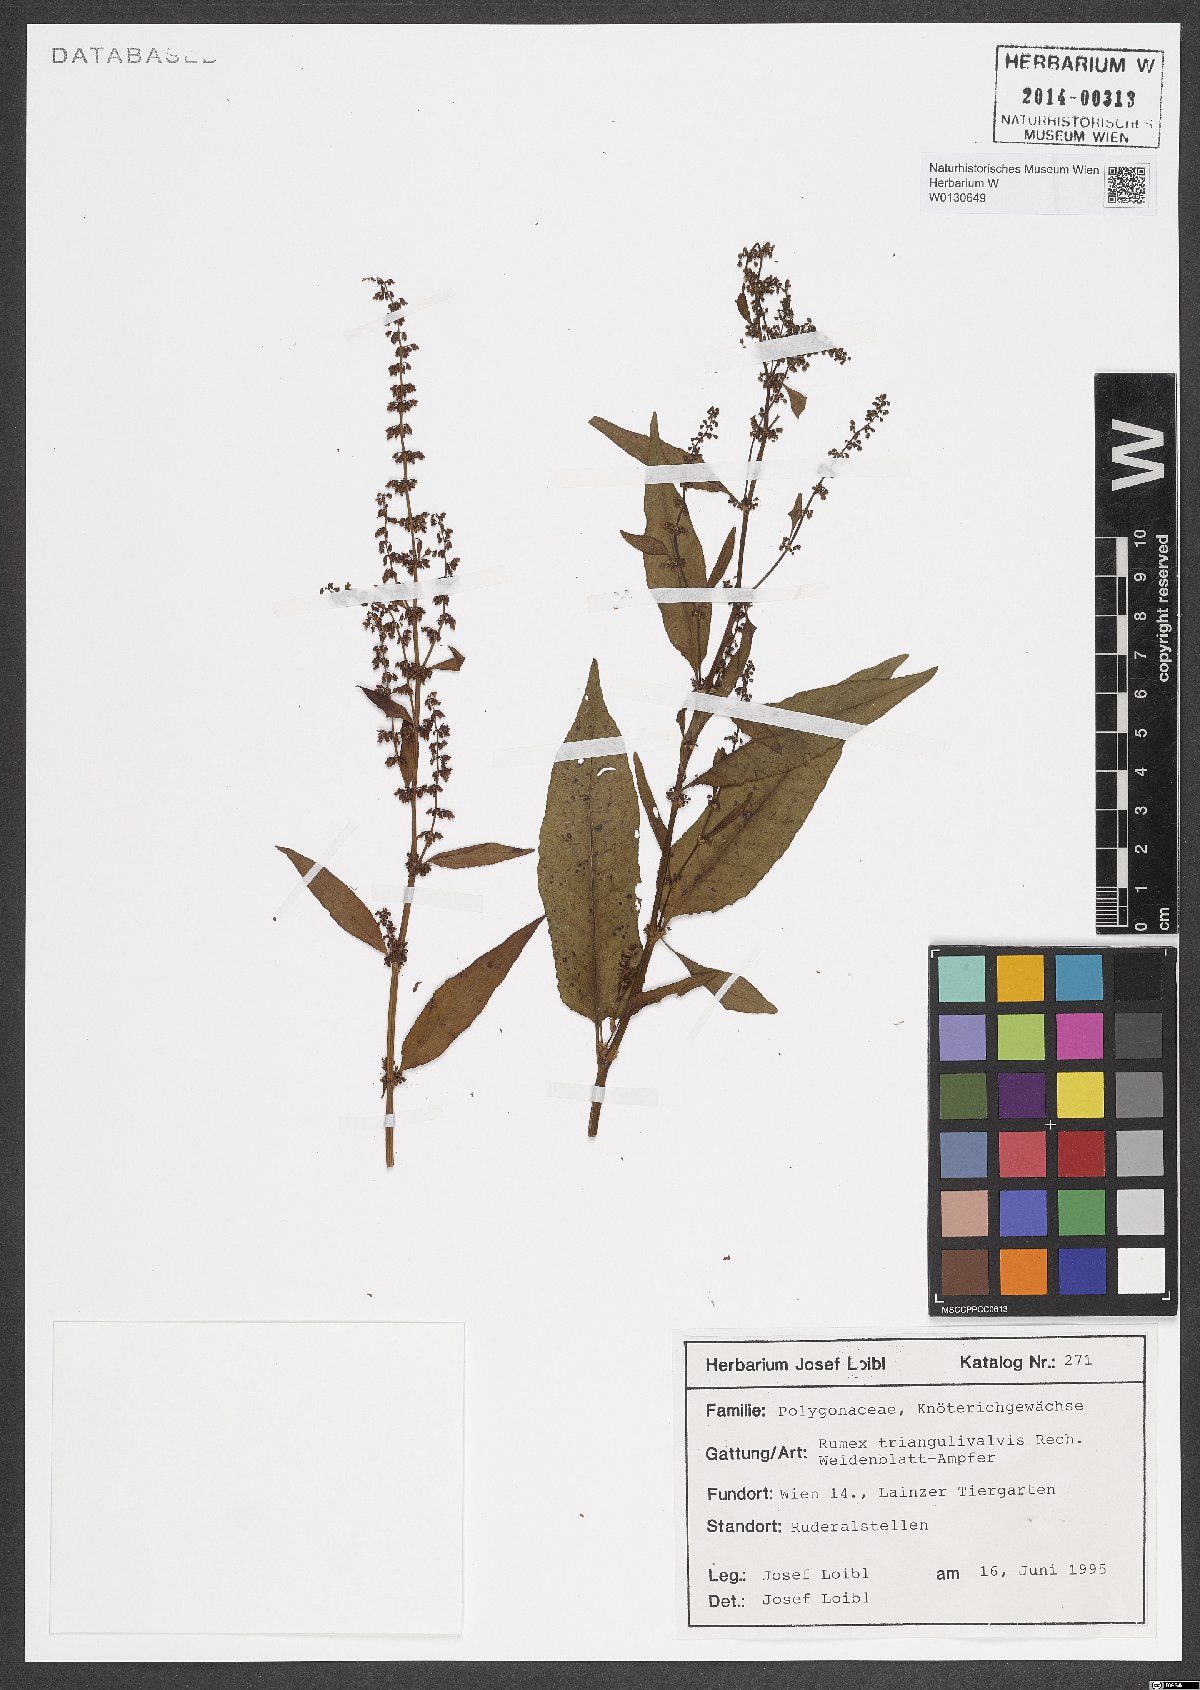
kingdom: Plantae
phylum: Tracheophyta
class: Magnoliopsida
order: Caryophyllales
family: Polygonaceae
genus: Rumex
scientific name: Rumex triangulivalvis
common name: Triangular-valve dock
